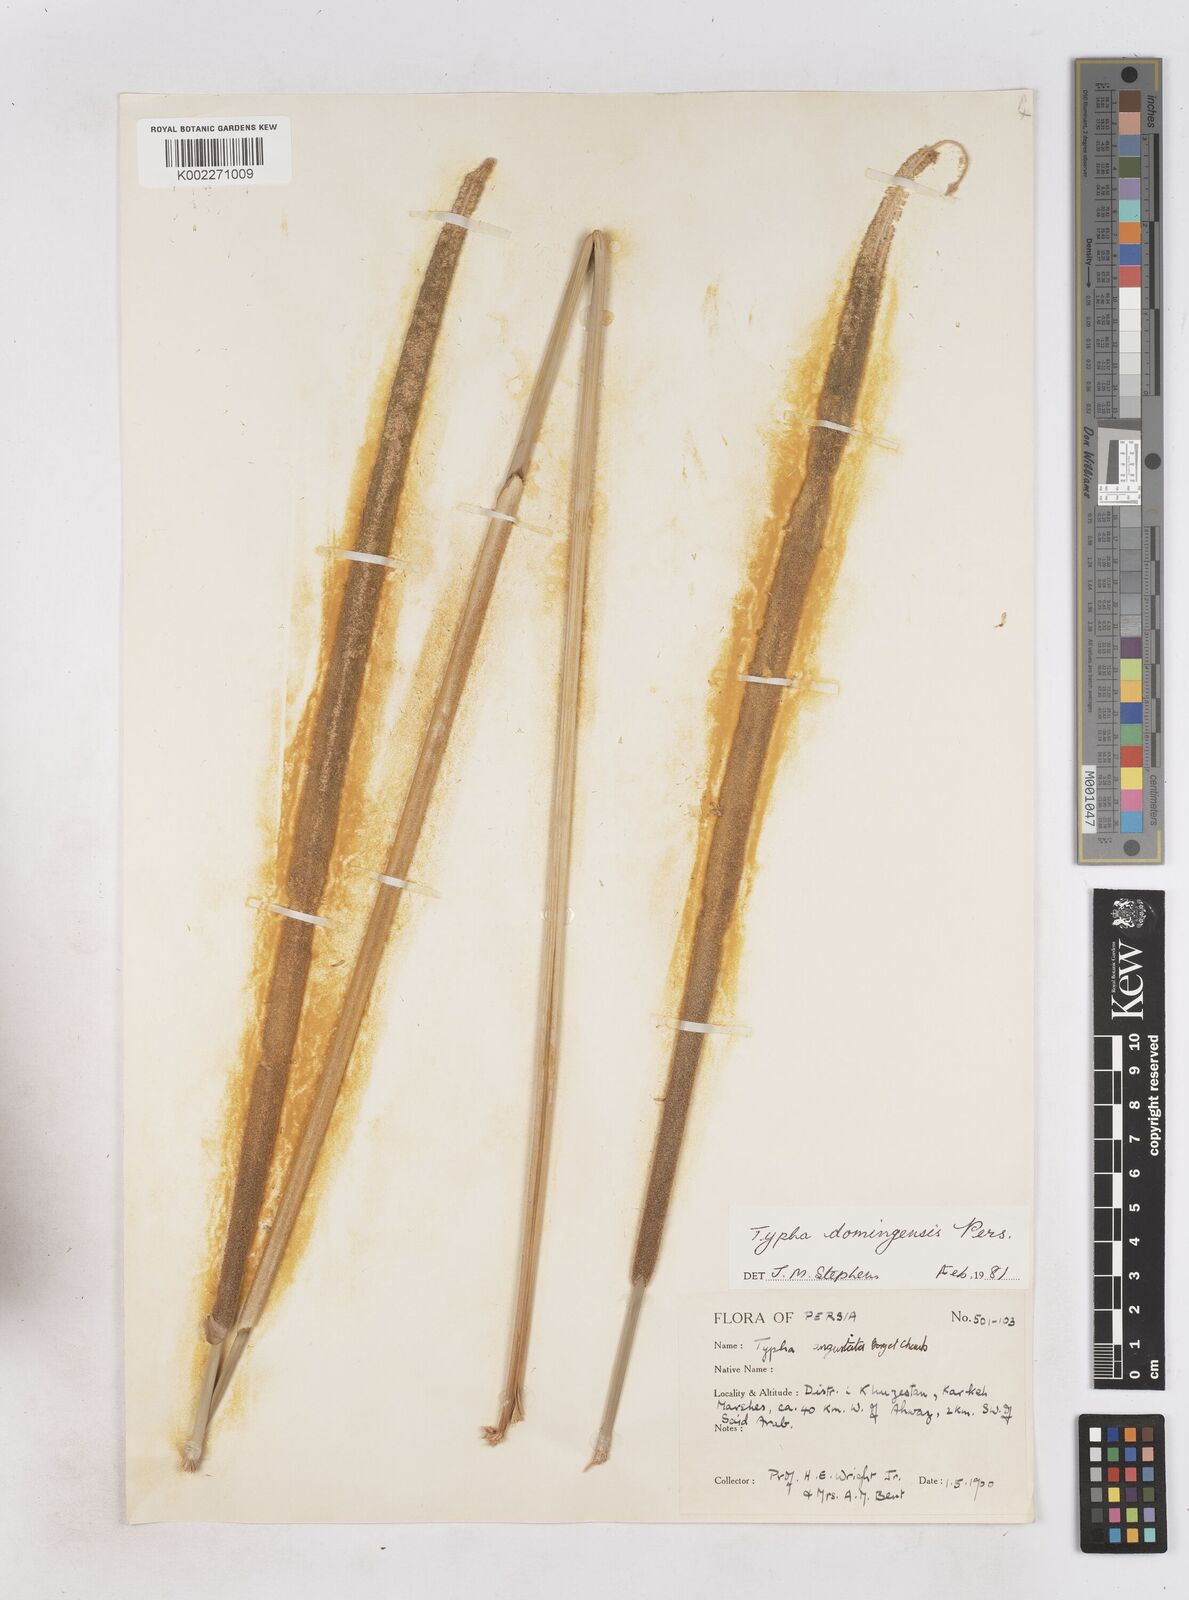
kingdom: Plantae
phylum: Tracheophyta
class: Liliopsida
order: Poales
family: Typhaceae
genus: Typha
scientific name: Typha domingensis
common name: Southern cattail
